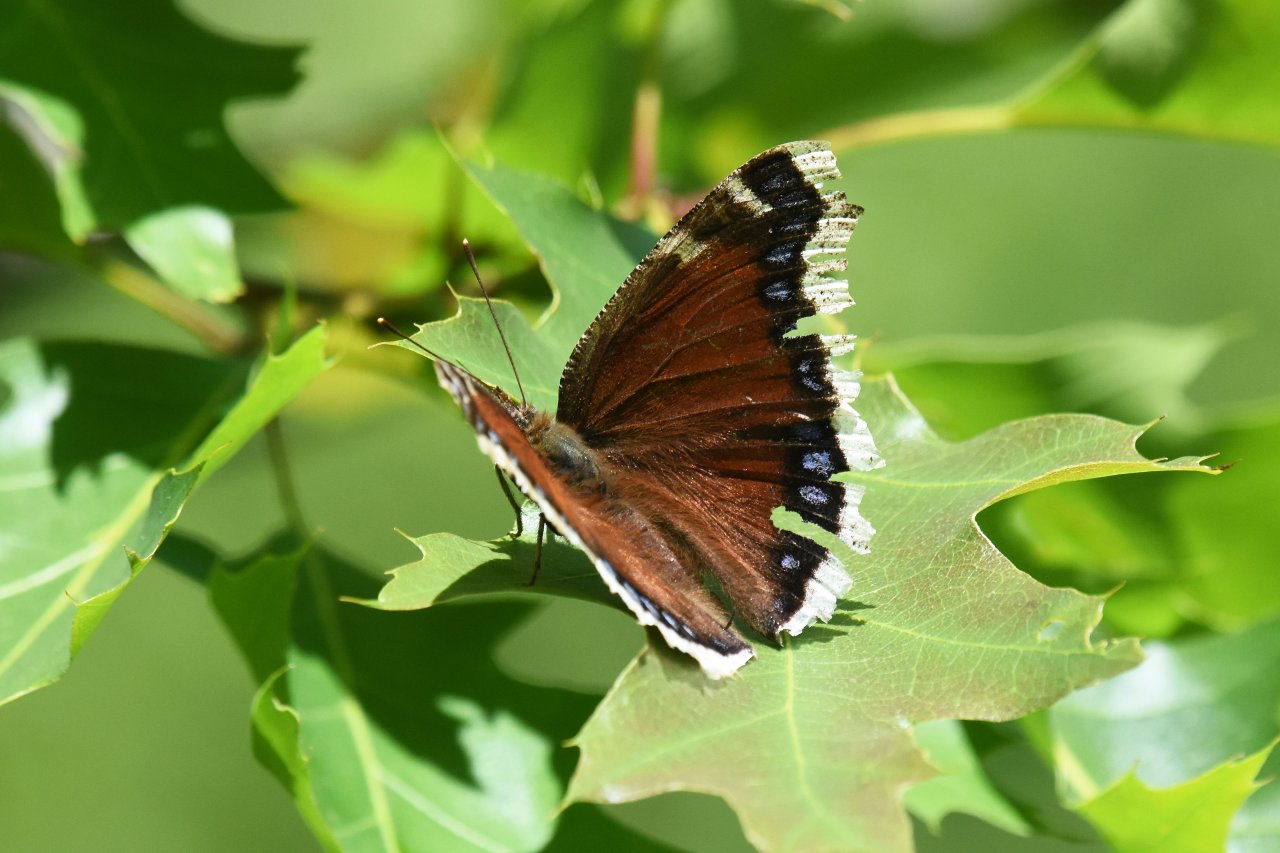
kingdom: Animalia
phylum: Arthropoda
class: Insecta
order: Lepidoptera
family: Nymphalidae
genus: Nymphalis
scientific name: Nymphalis antiopa
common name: Mourning Cloak
